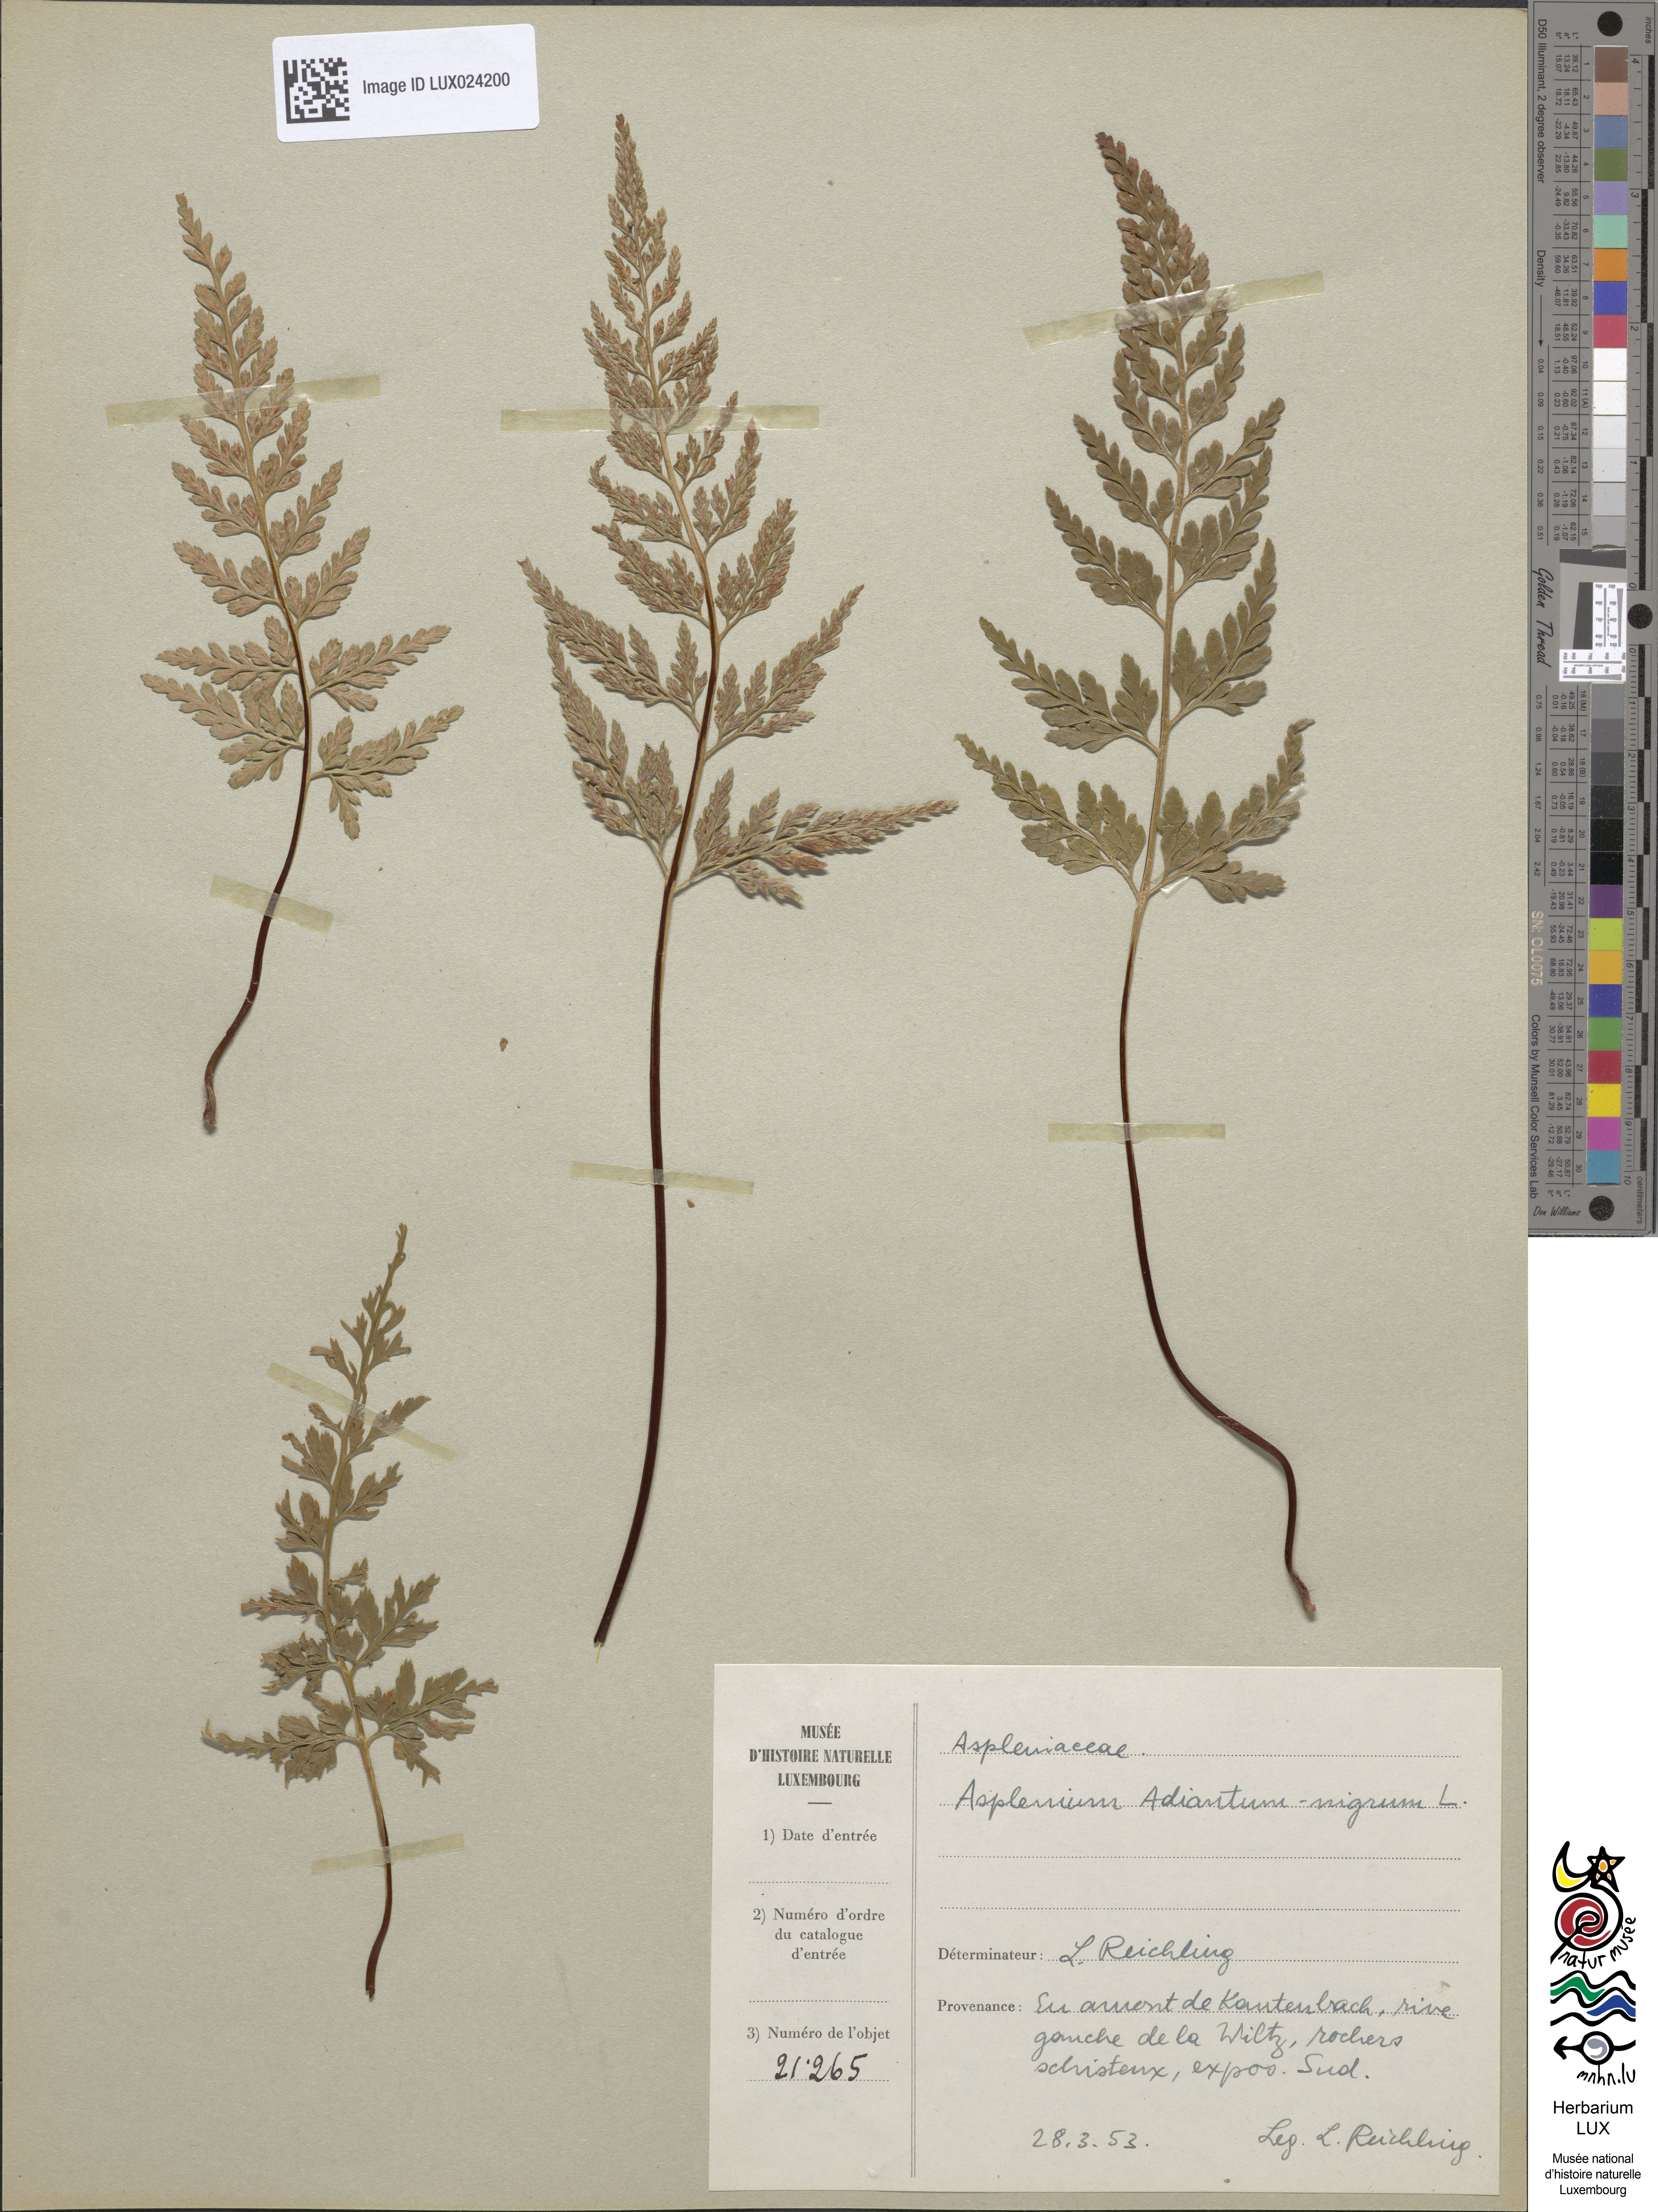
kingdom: Plantae
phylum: Tracheophyta
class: Polypodiopsida
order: Polypodiales
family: Aspleniaceae
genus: Asplenium
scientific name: Asplenium adiantum-nigrum
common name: Black spleenwort
